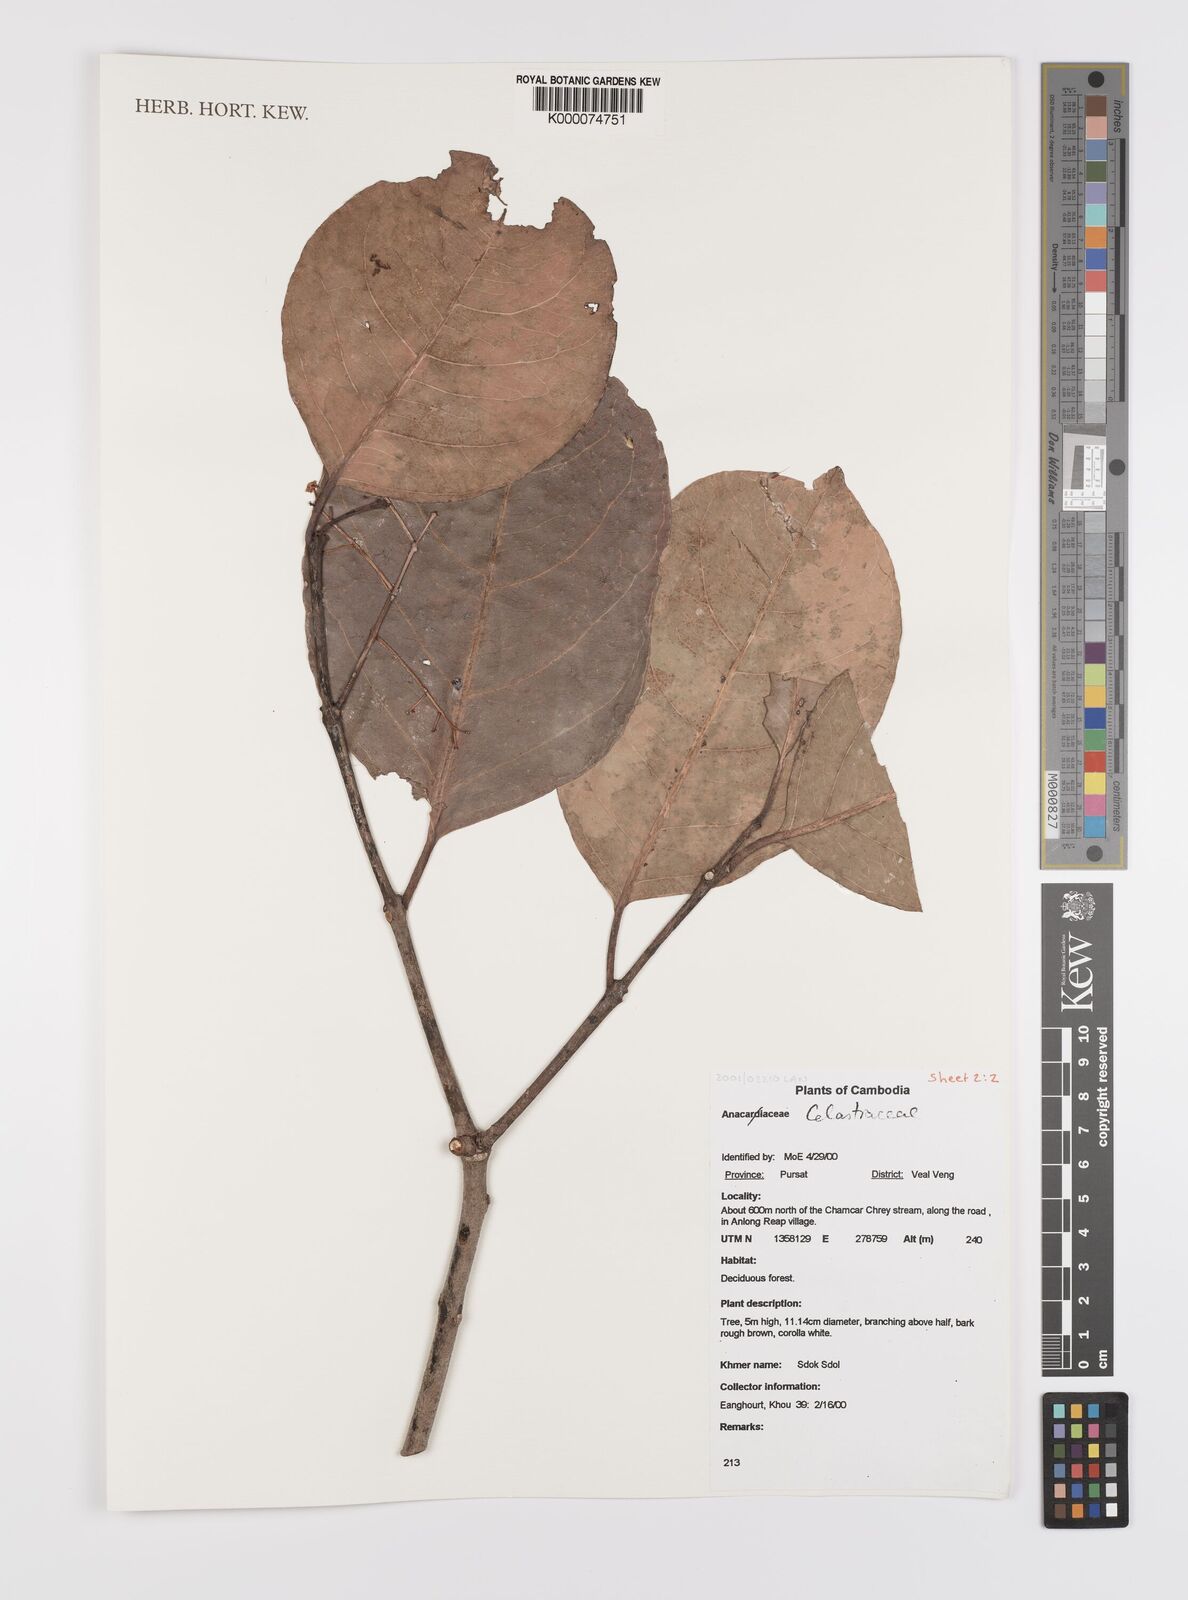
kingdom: Plantae
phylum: Tracheophyta
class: Magnoliopsida
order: Celastrales
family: Celastraceae
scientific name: Celastraceae
